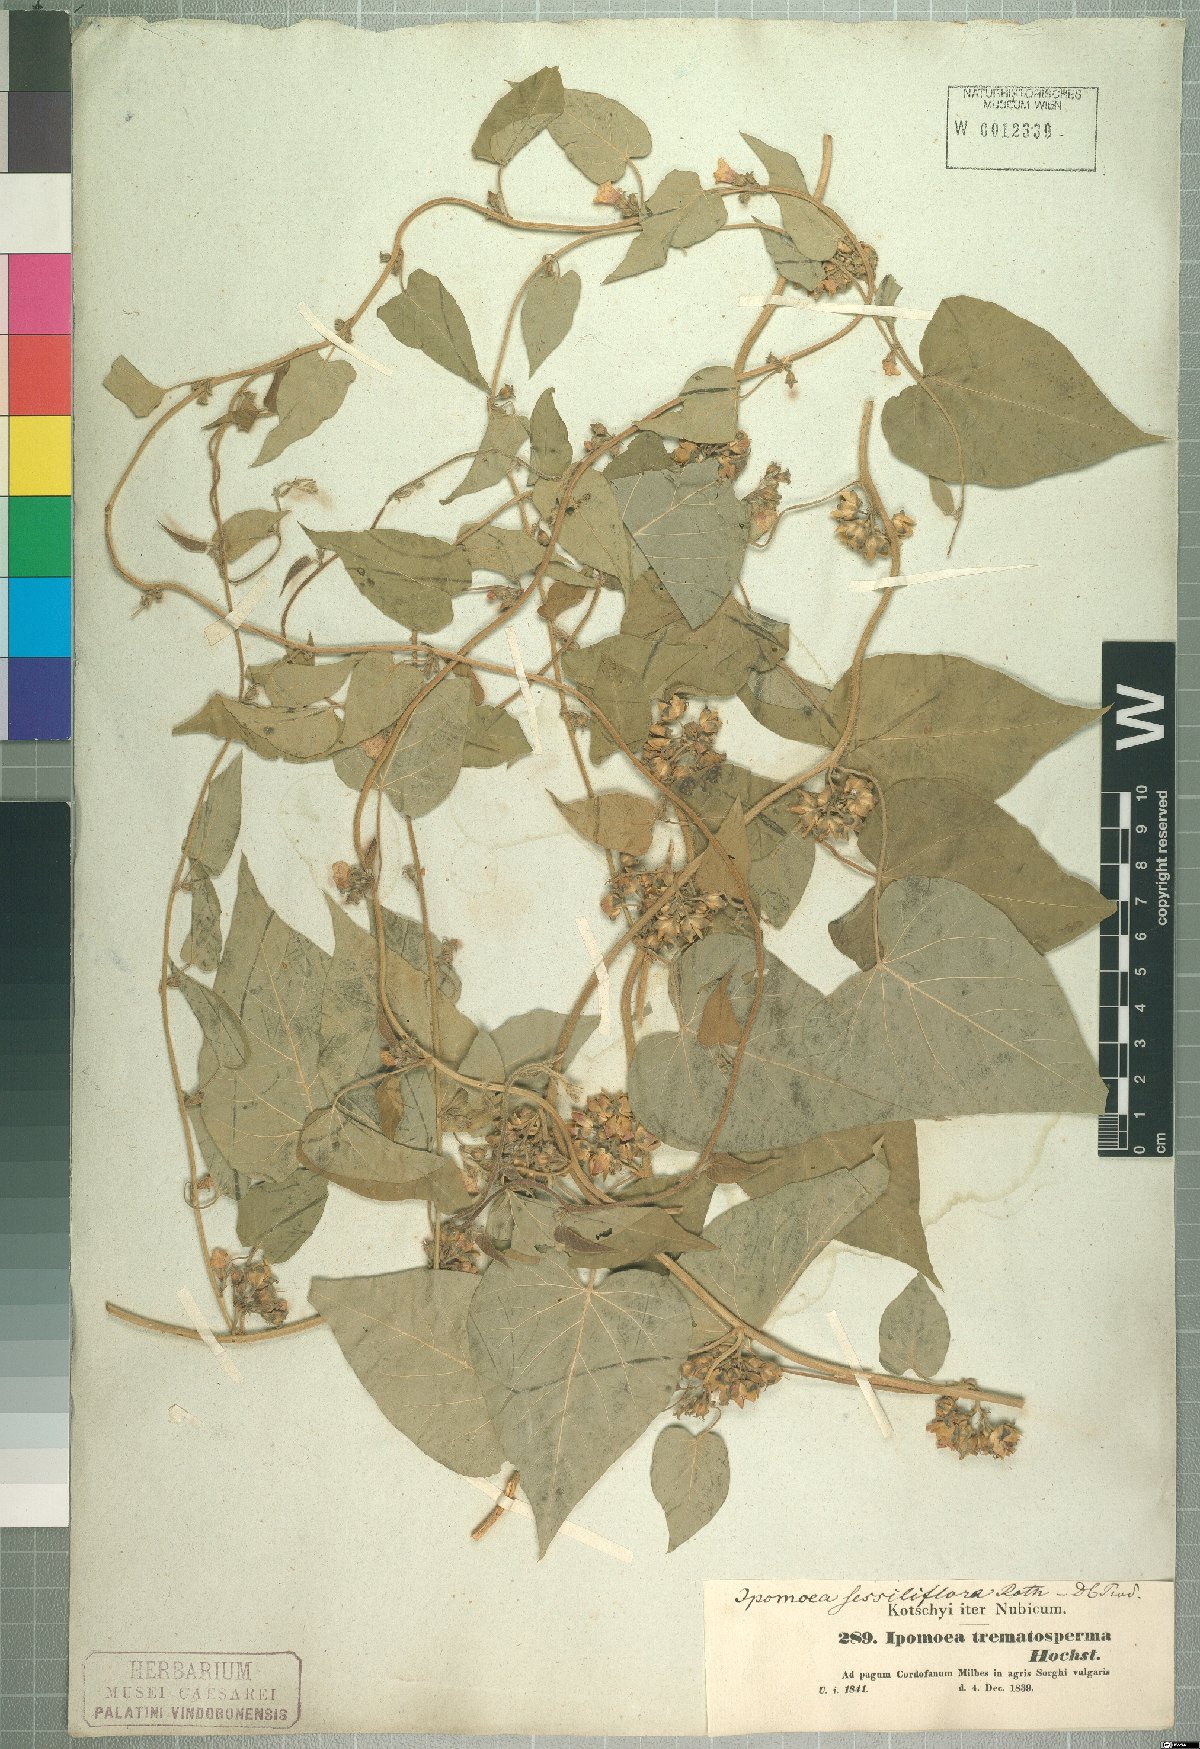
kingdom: Plantae
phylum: Tracheophyta
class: Magnoliopsida
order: Solanales
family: Convolvulaceae
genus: Ipomoea
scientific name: Ipomoea eriocarpa
